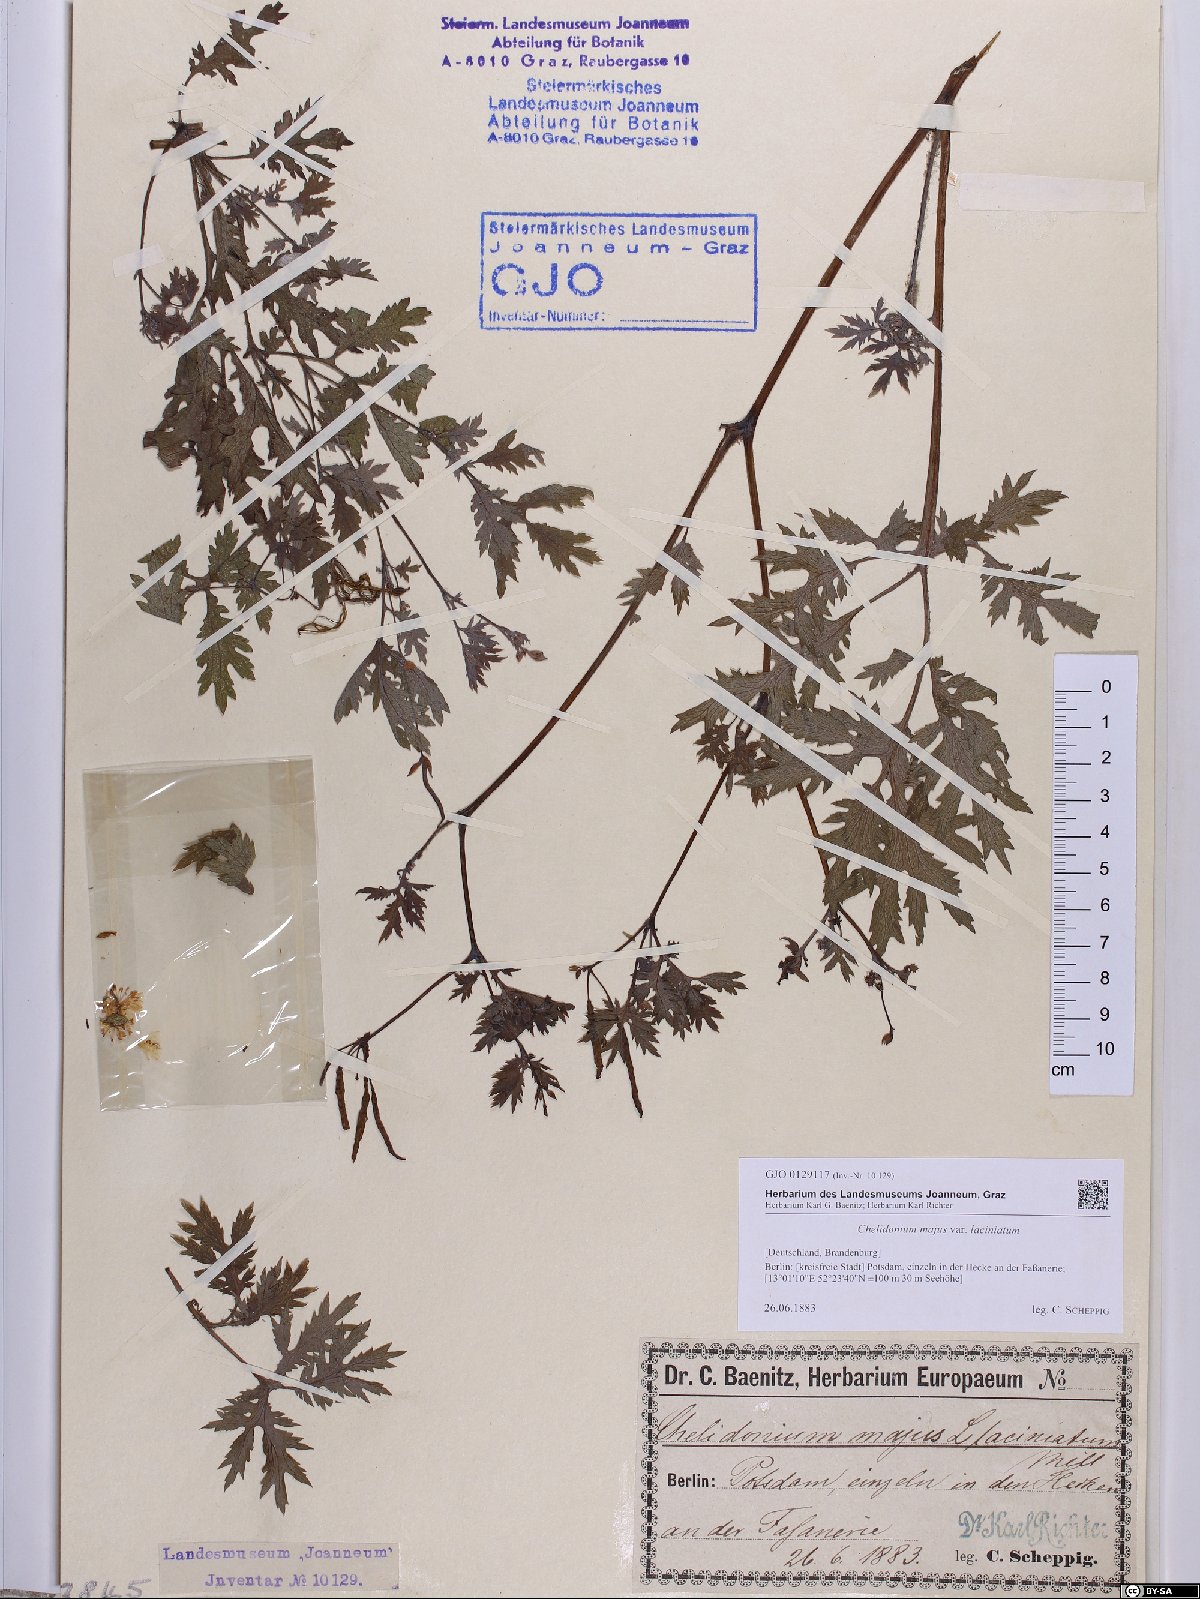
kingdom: Plantae
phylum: Tracheophyta
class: Magnoliopsida
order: Ranunculales
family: Papaveraceae
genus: Chelidonium
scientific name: Chelidonium majus
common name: Greater celandine
